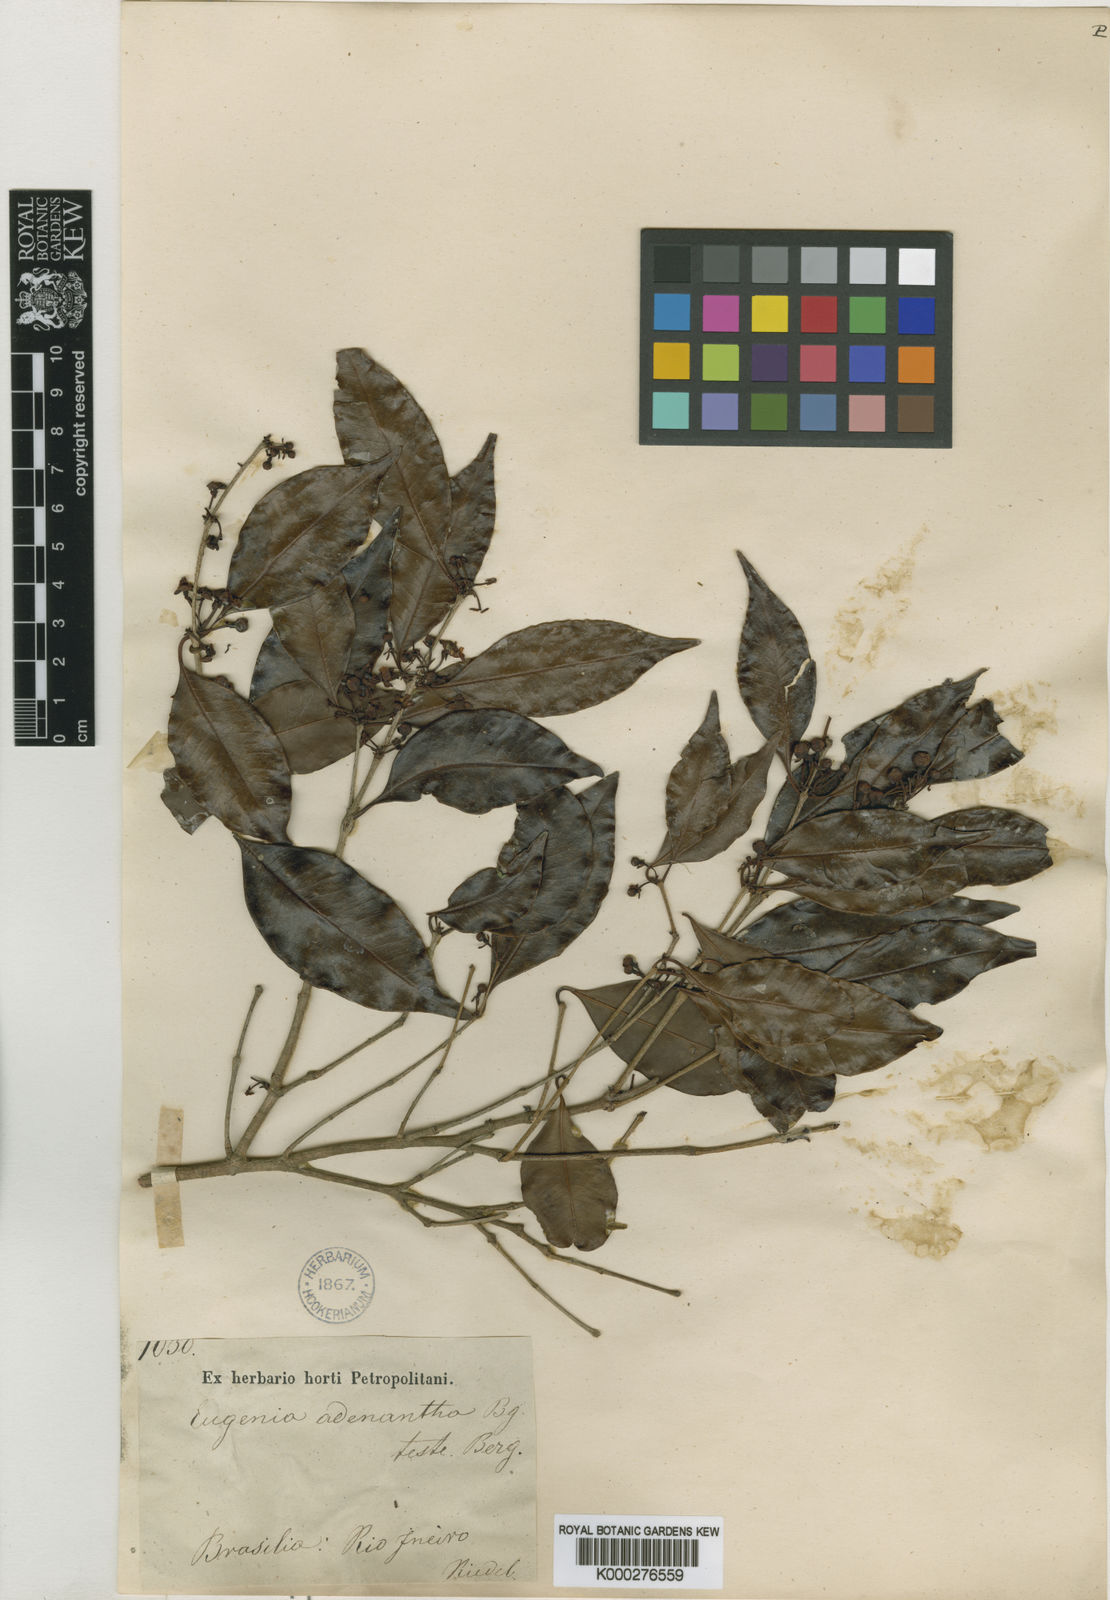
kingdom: Plantae
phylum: Tracheophyta
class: Magnoliopsida
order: Myrtales
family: Myrtaceae
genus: Eugenia
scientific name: Eugenia adenantha
